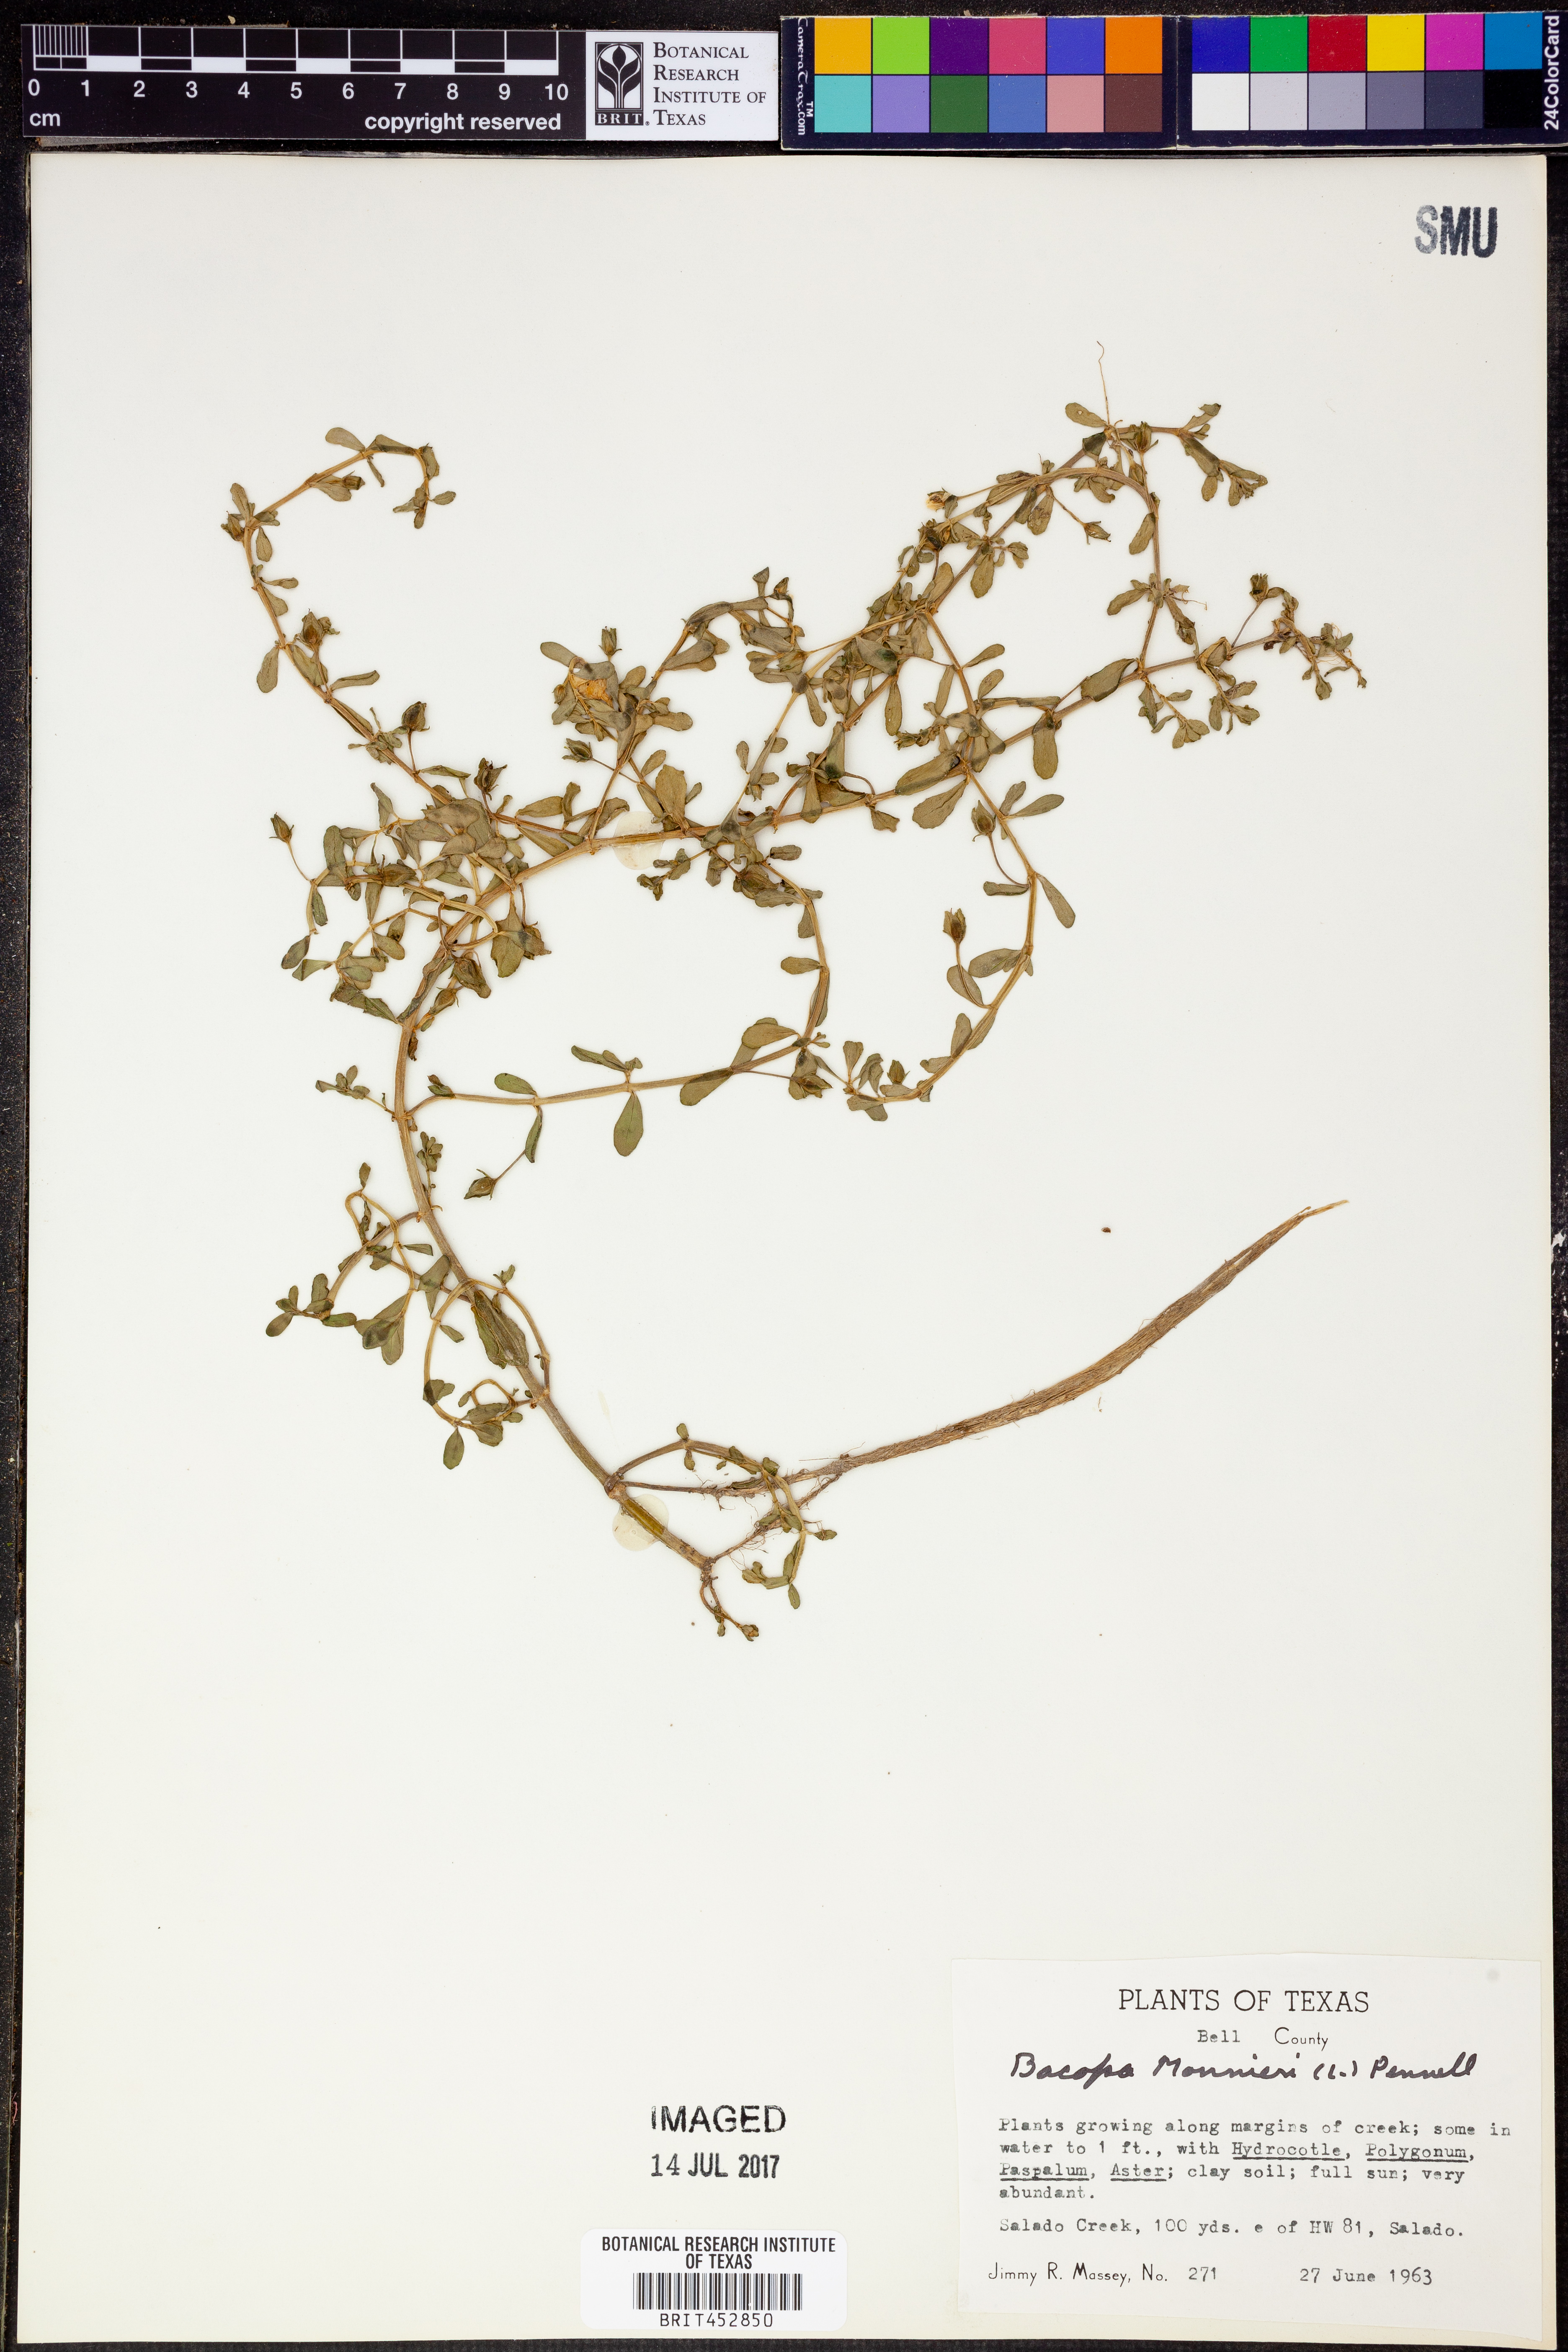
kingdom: Plantae
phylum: Tracheophyta
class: Magnoliopsida
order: Lamiales
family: Plantaginaceae
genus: Bacopa
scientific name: Bacopa monnieri
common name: Indian-pennywort
